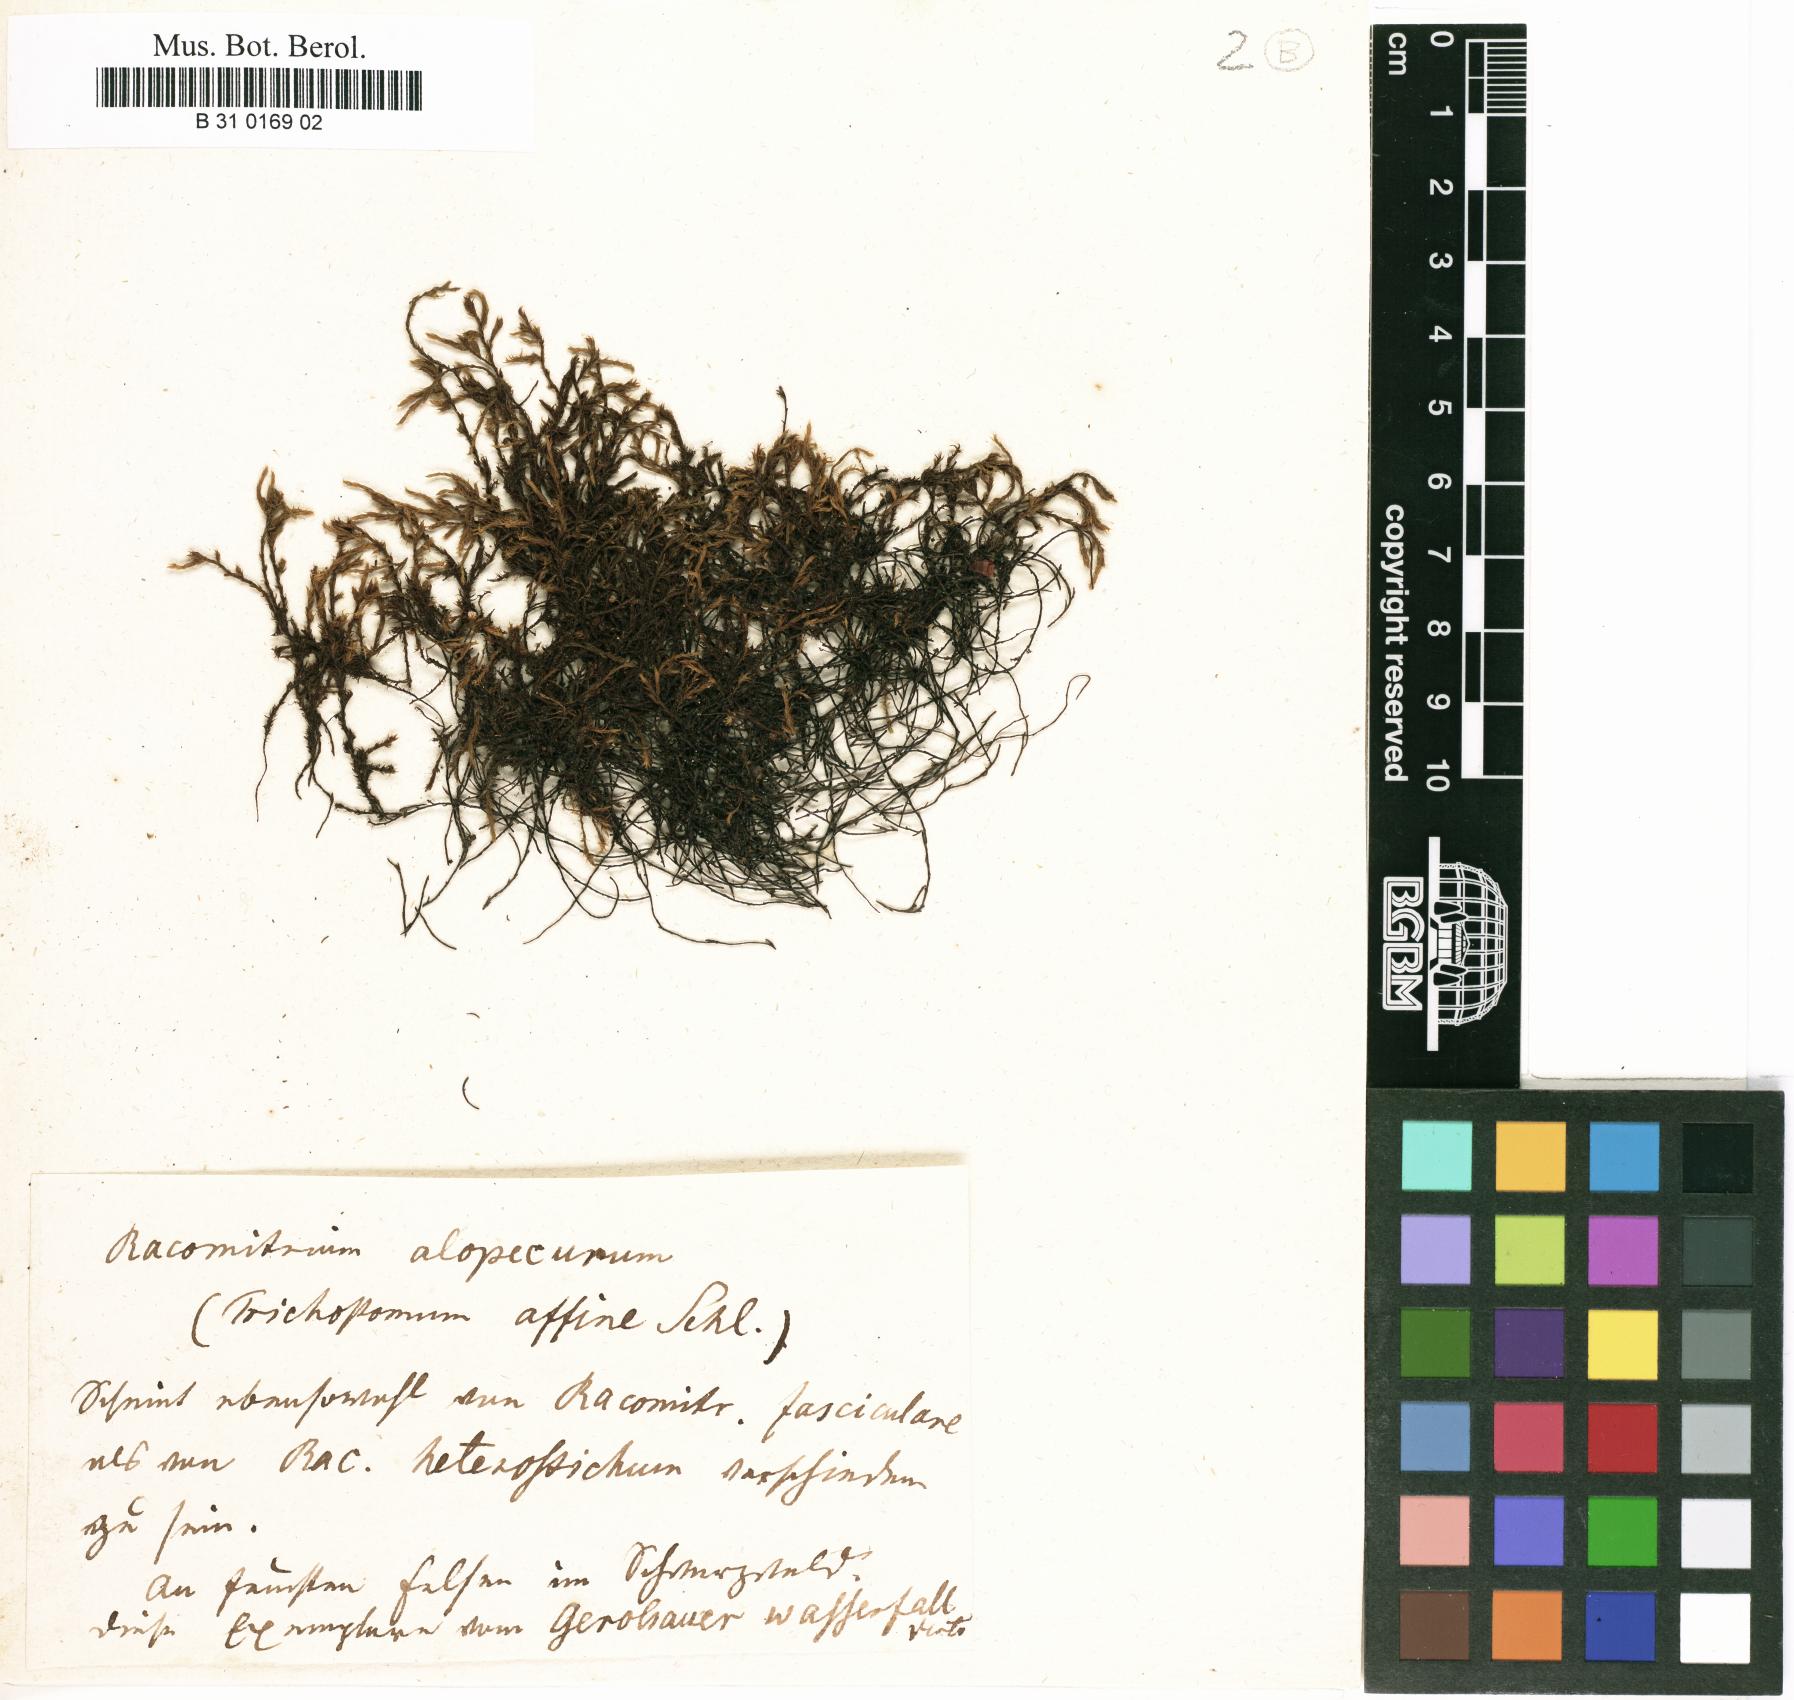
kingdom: Plantae
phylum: Bryophyta
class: Bryopsida
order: Grimmiales
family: Grimmiaceae
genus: Bucklandiella
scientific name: Bucklandiella affinis
